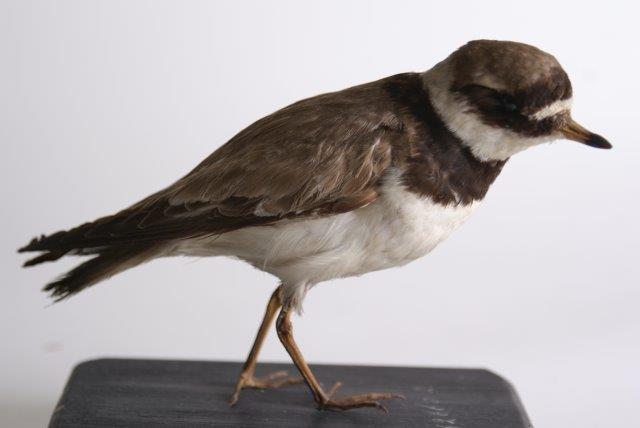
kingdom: Animalia
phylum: Chordata
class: Aves
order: Charadriiformes
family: Charadriidae
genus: Charadrius
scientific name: Charadrius hiaticula
